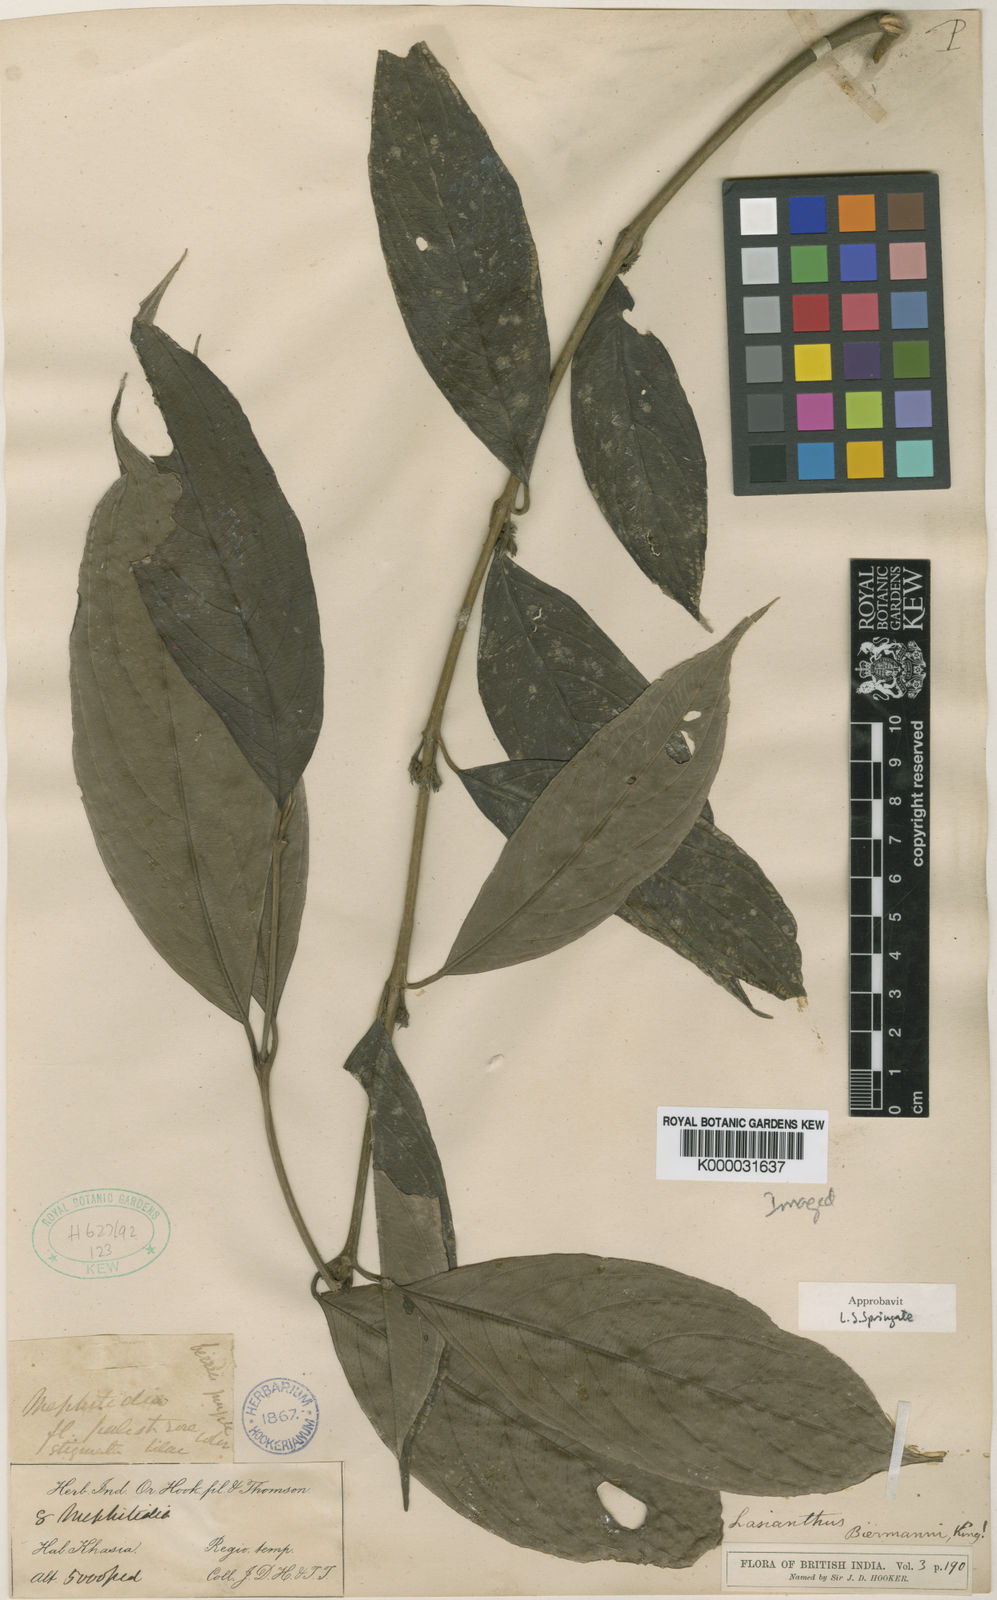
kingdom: Plantae
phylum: Tracheophyta
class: Magnoliopsida
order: Gentianales
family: Rubiaceae
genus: Lasianthus
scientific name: Lasianthus
